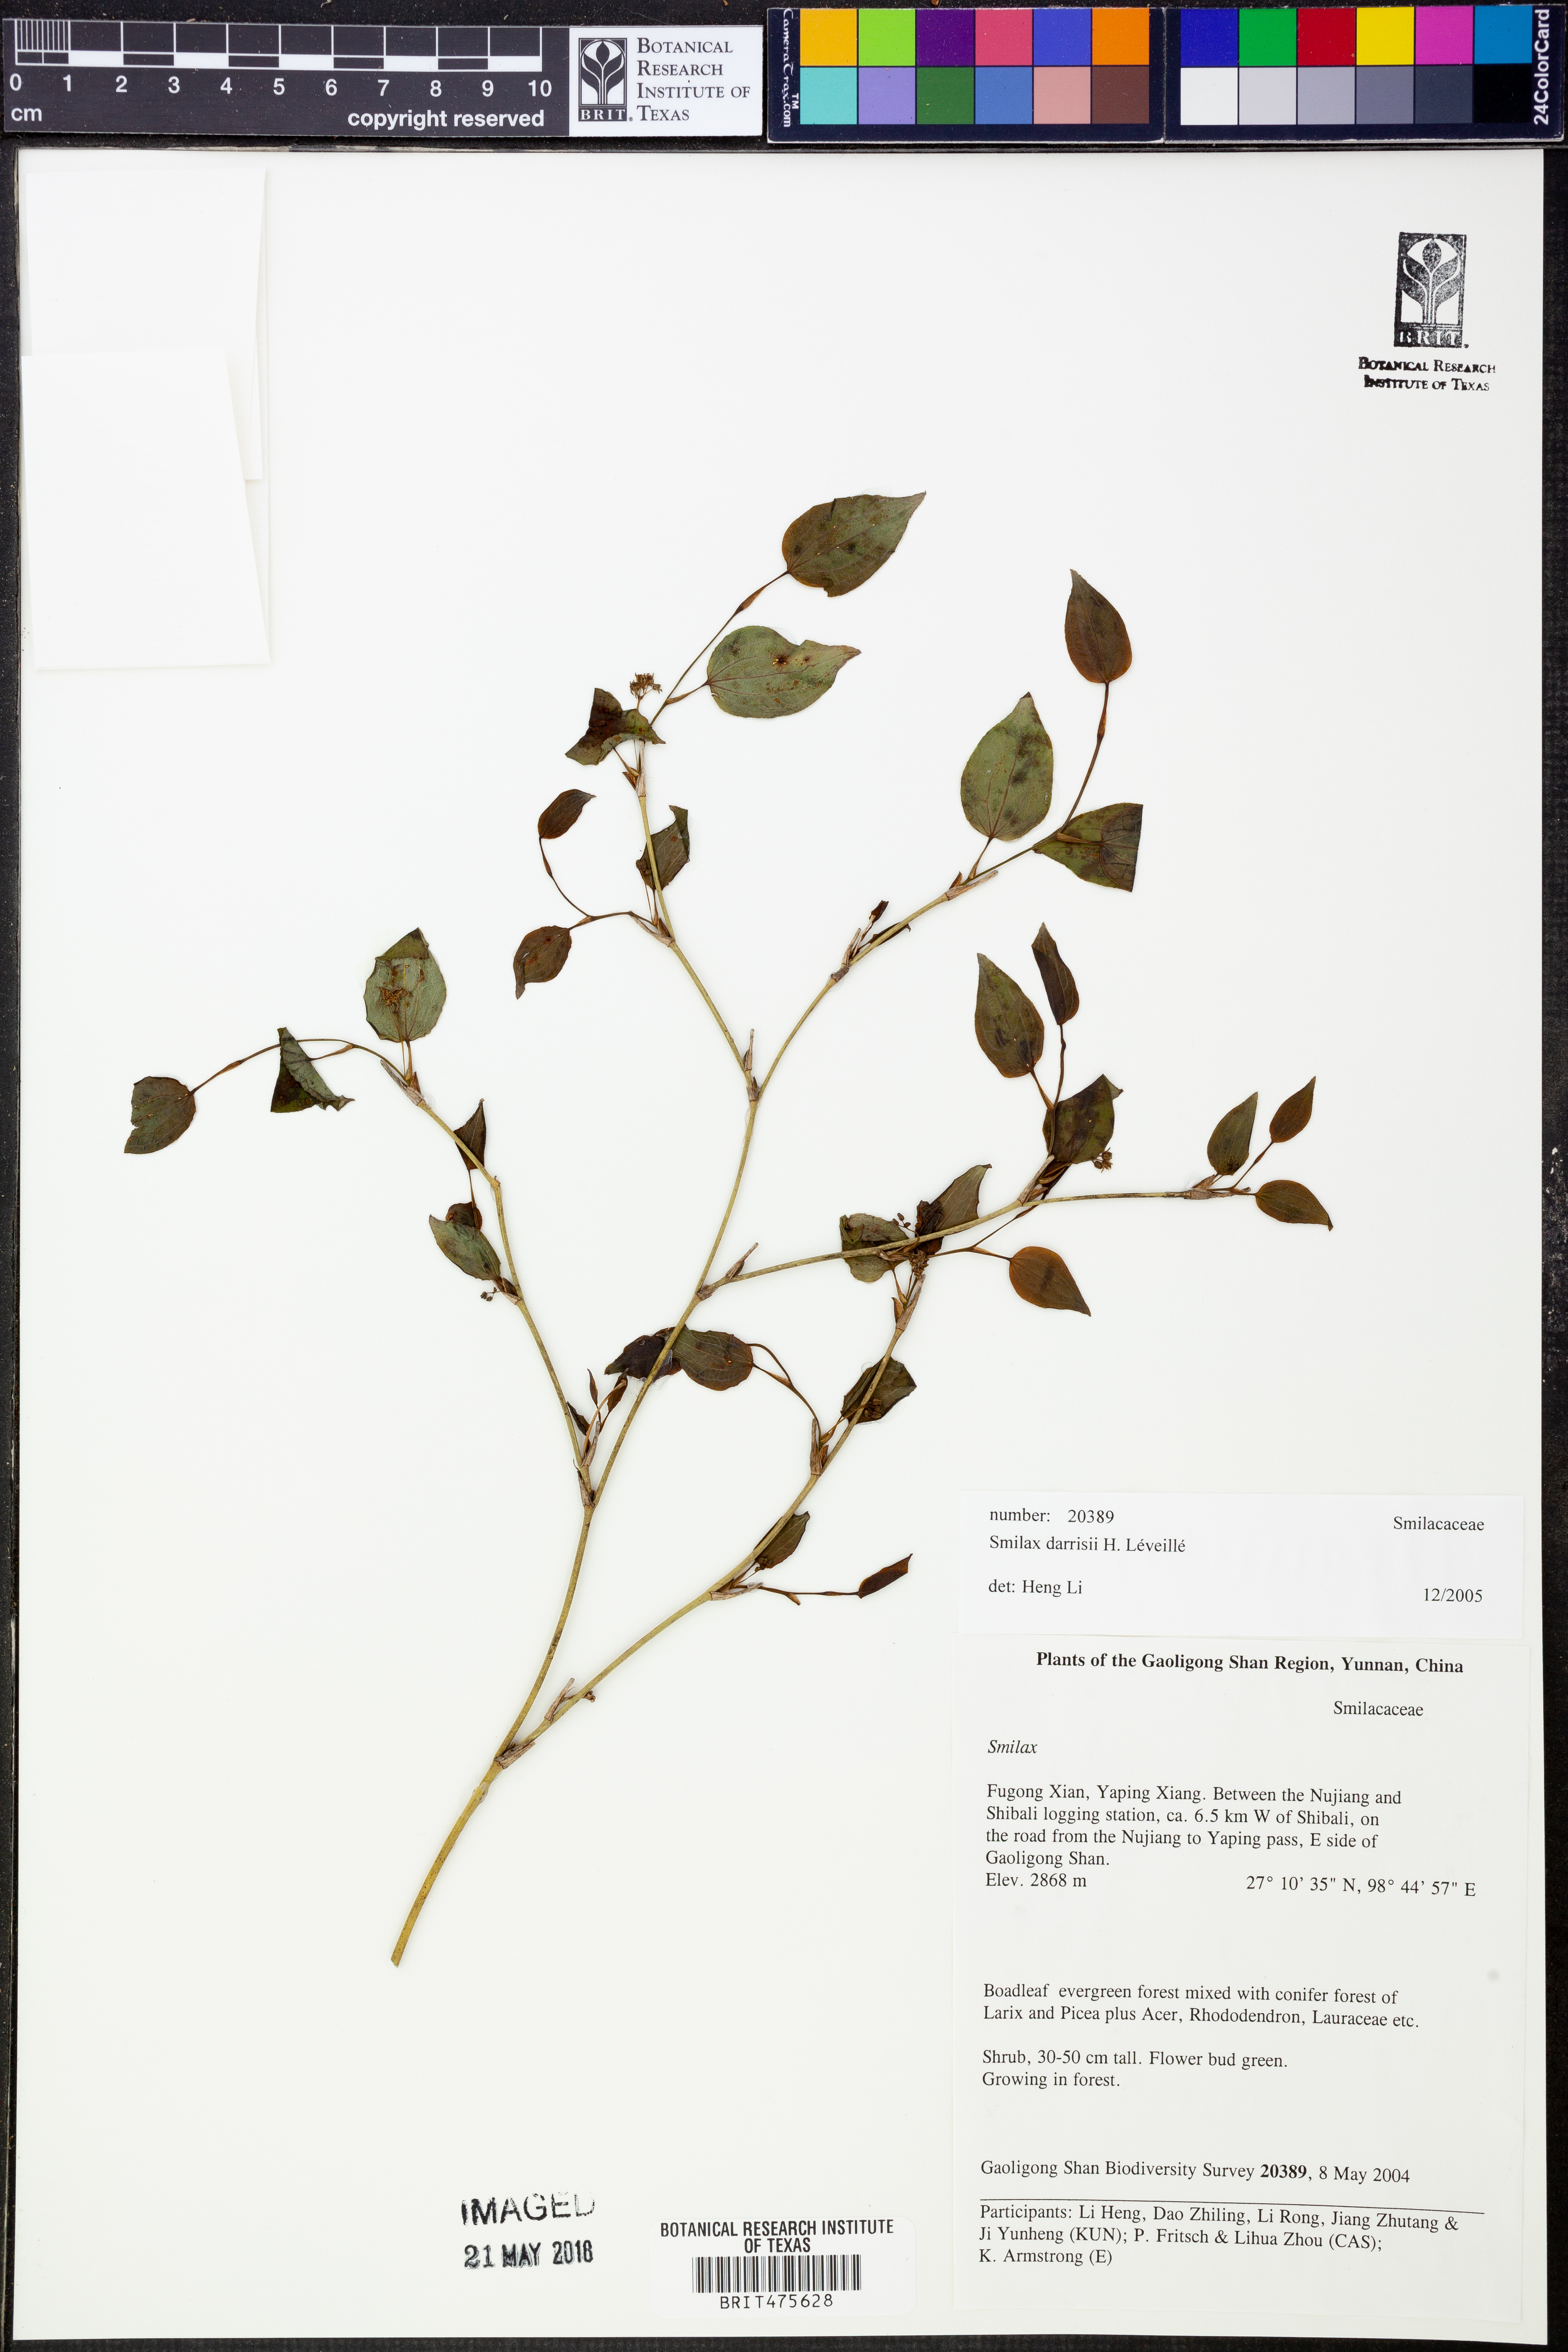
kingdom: Plantae
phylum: Tracheophyta
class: Liliopsida
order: Liliales
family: Smilacaceae
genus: Smilax
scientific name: Smilax darrisii
